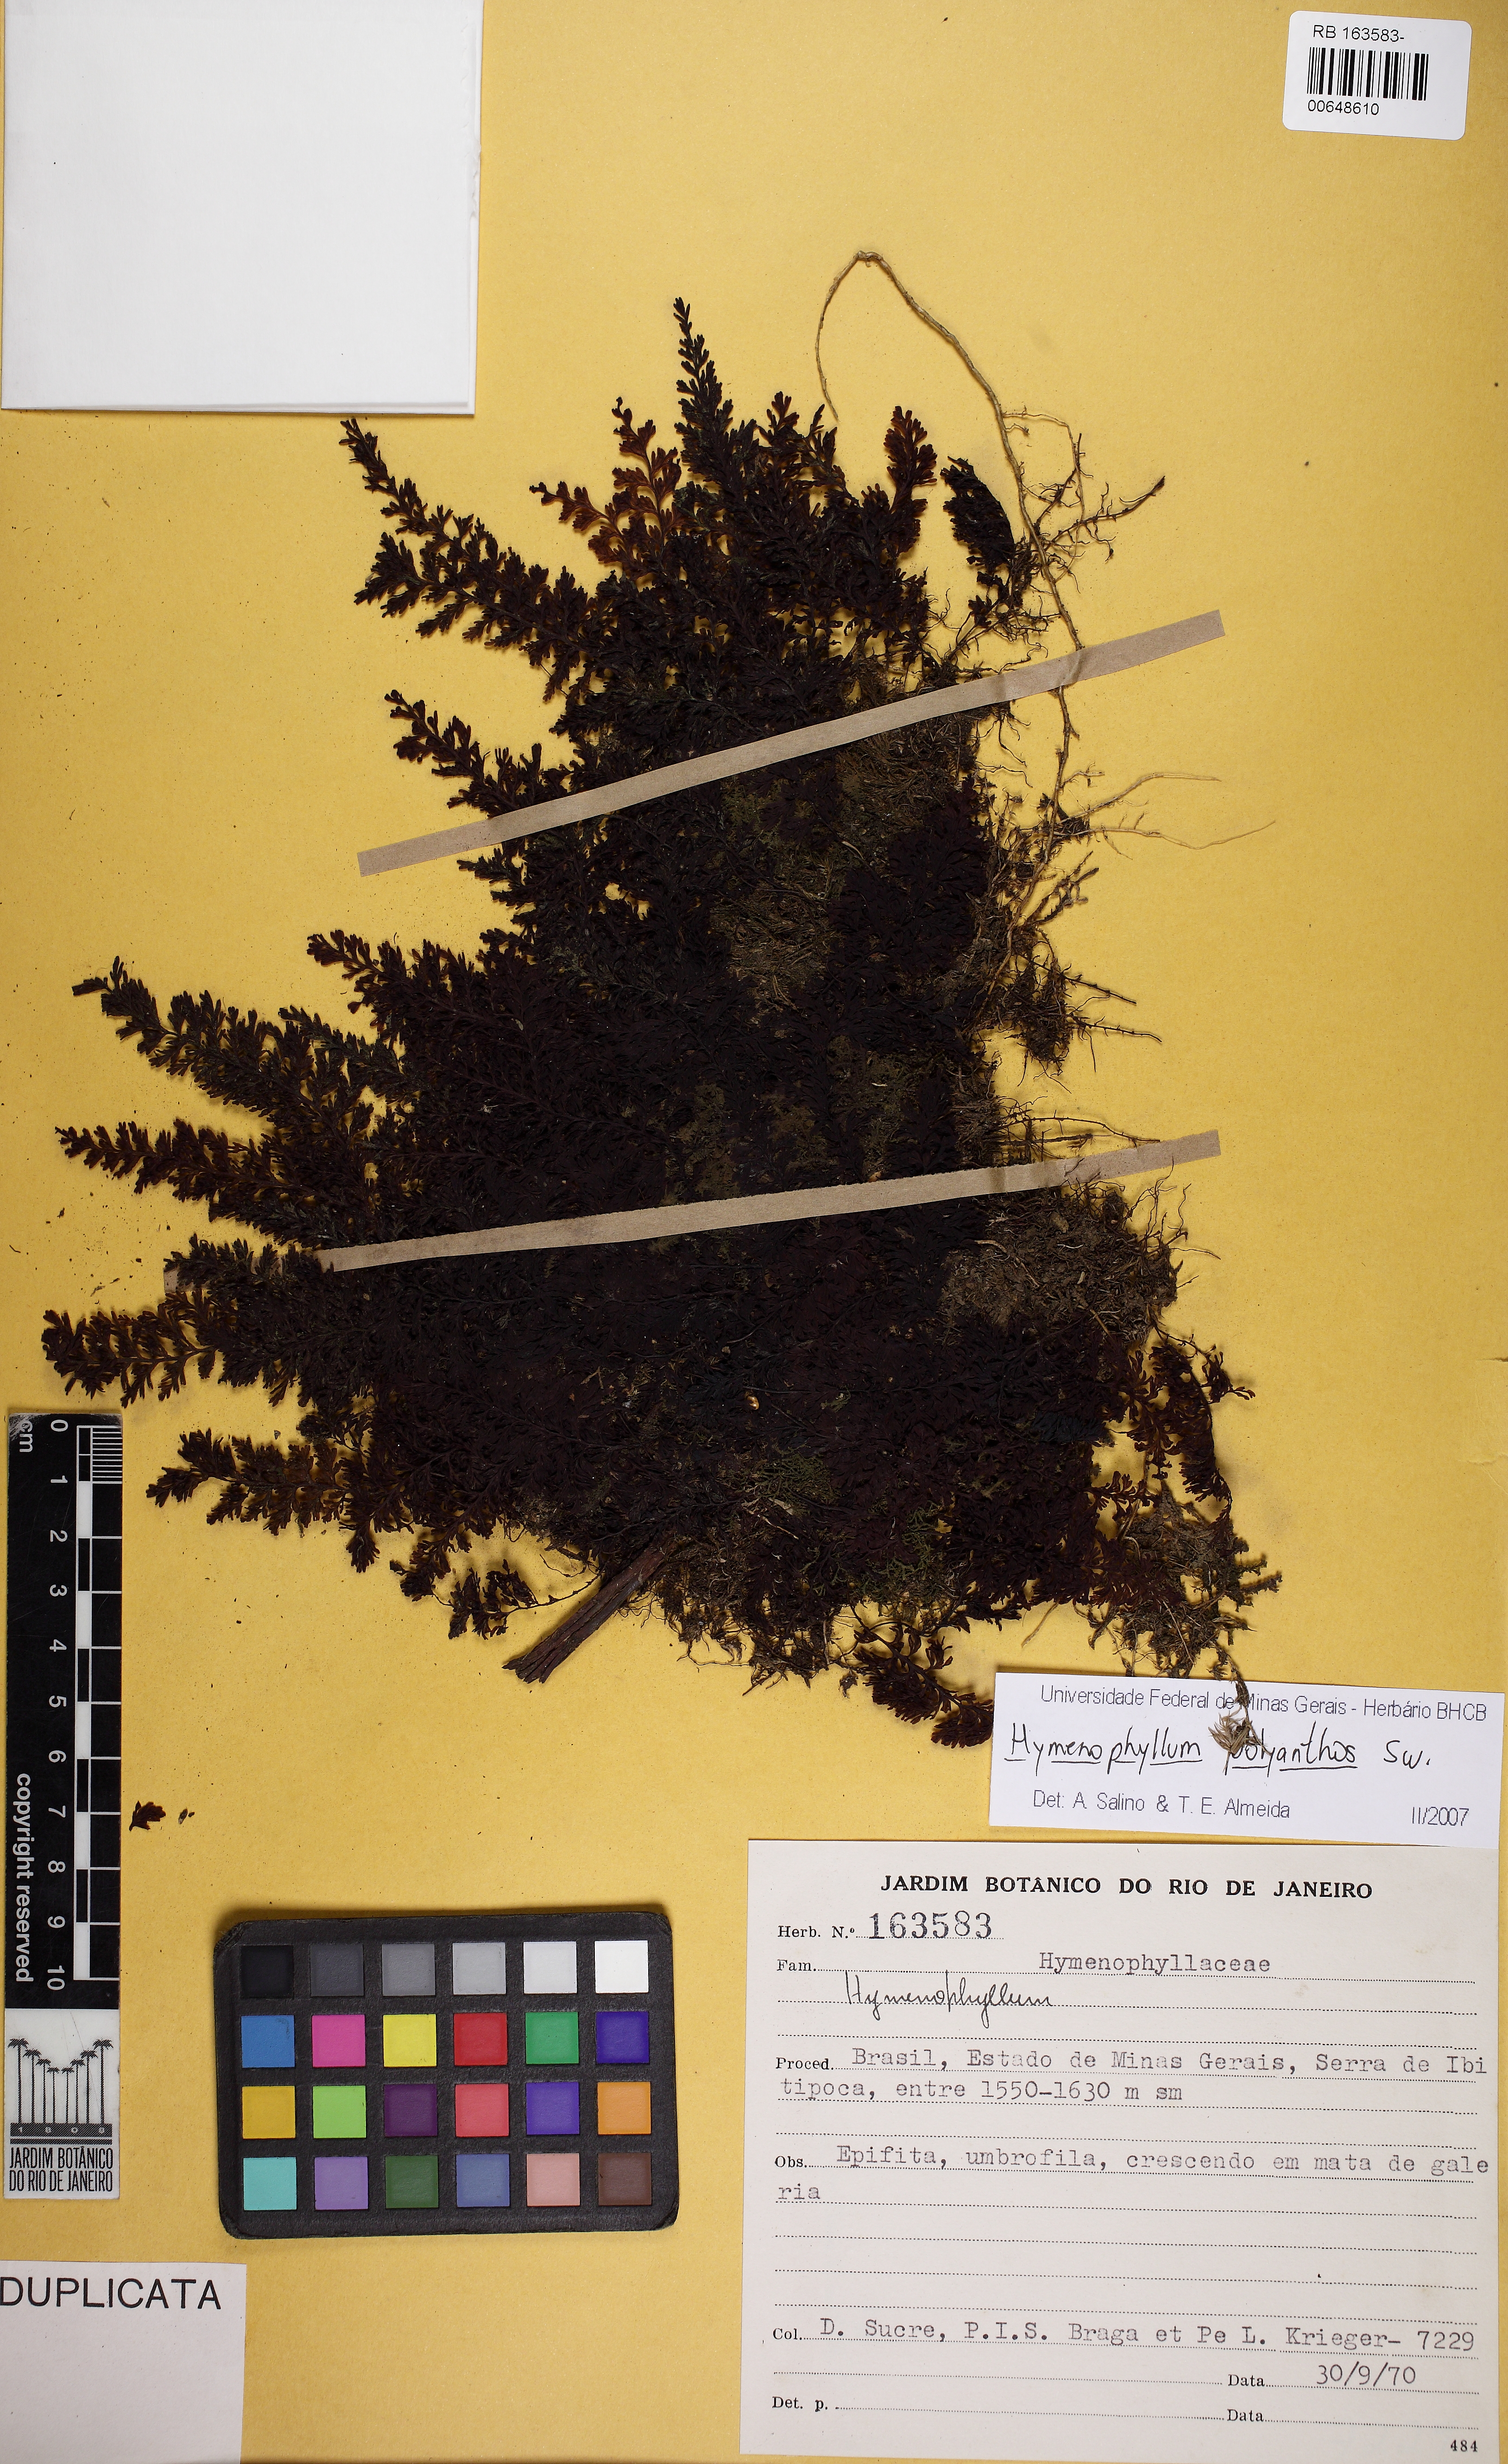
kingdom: Plantae
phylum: Tracheophyta
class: Polypodiopsida
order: Hymenophyllales
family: Hymenophyllaceae
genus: Hymenophyllum
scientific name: Hymenophyllum polyanthos
